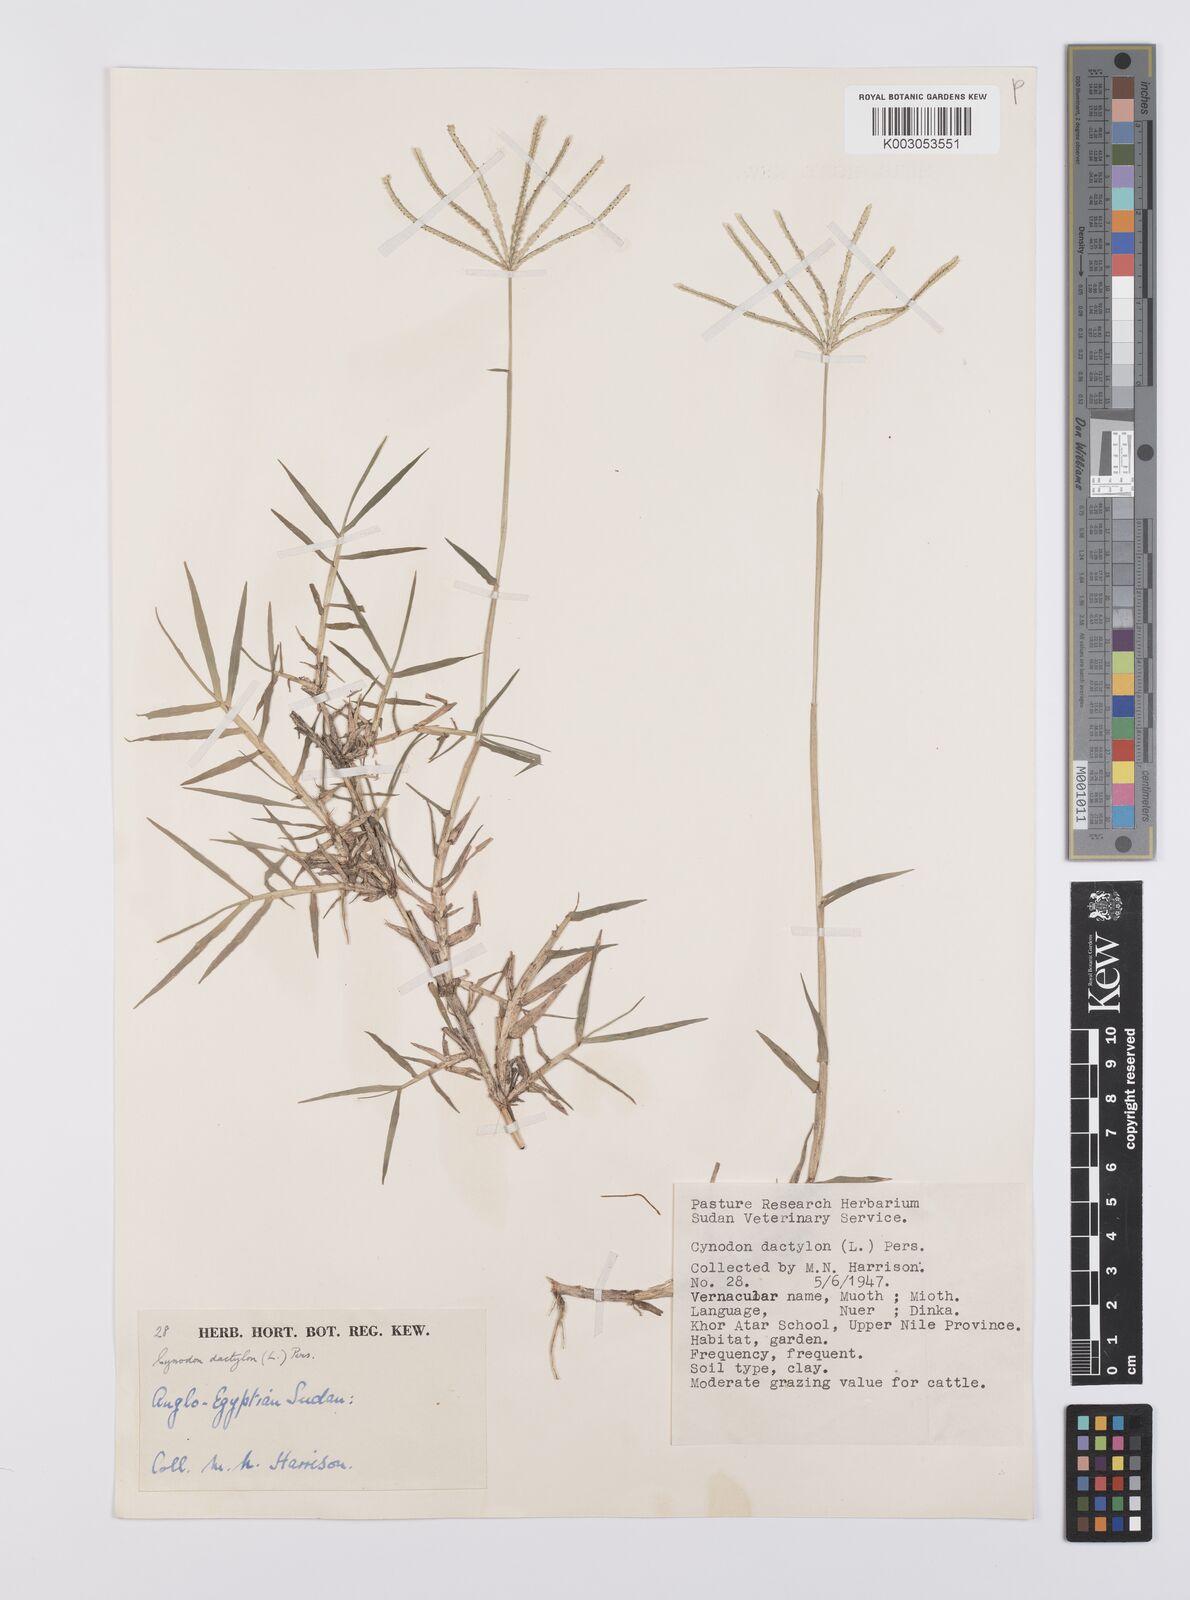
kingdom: Plantae
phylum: Tracheophyta
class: Liliopsida
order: Poales
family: Poaceae
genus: Cynodon
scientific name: Cynodon dactylon
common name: Bermuda grass
